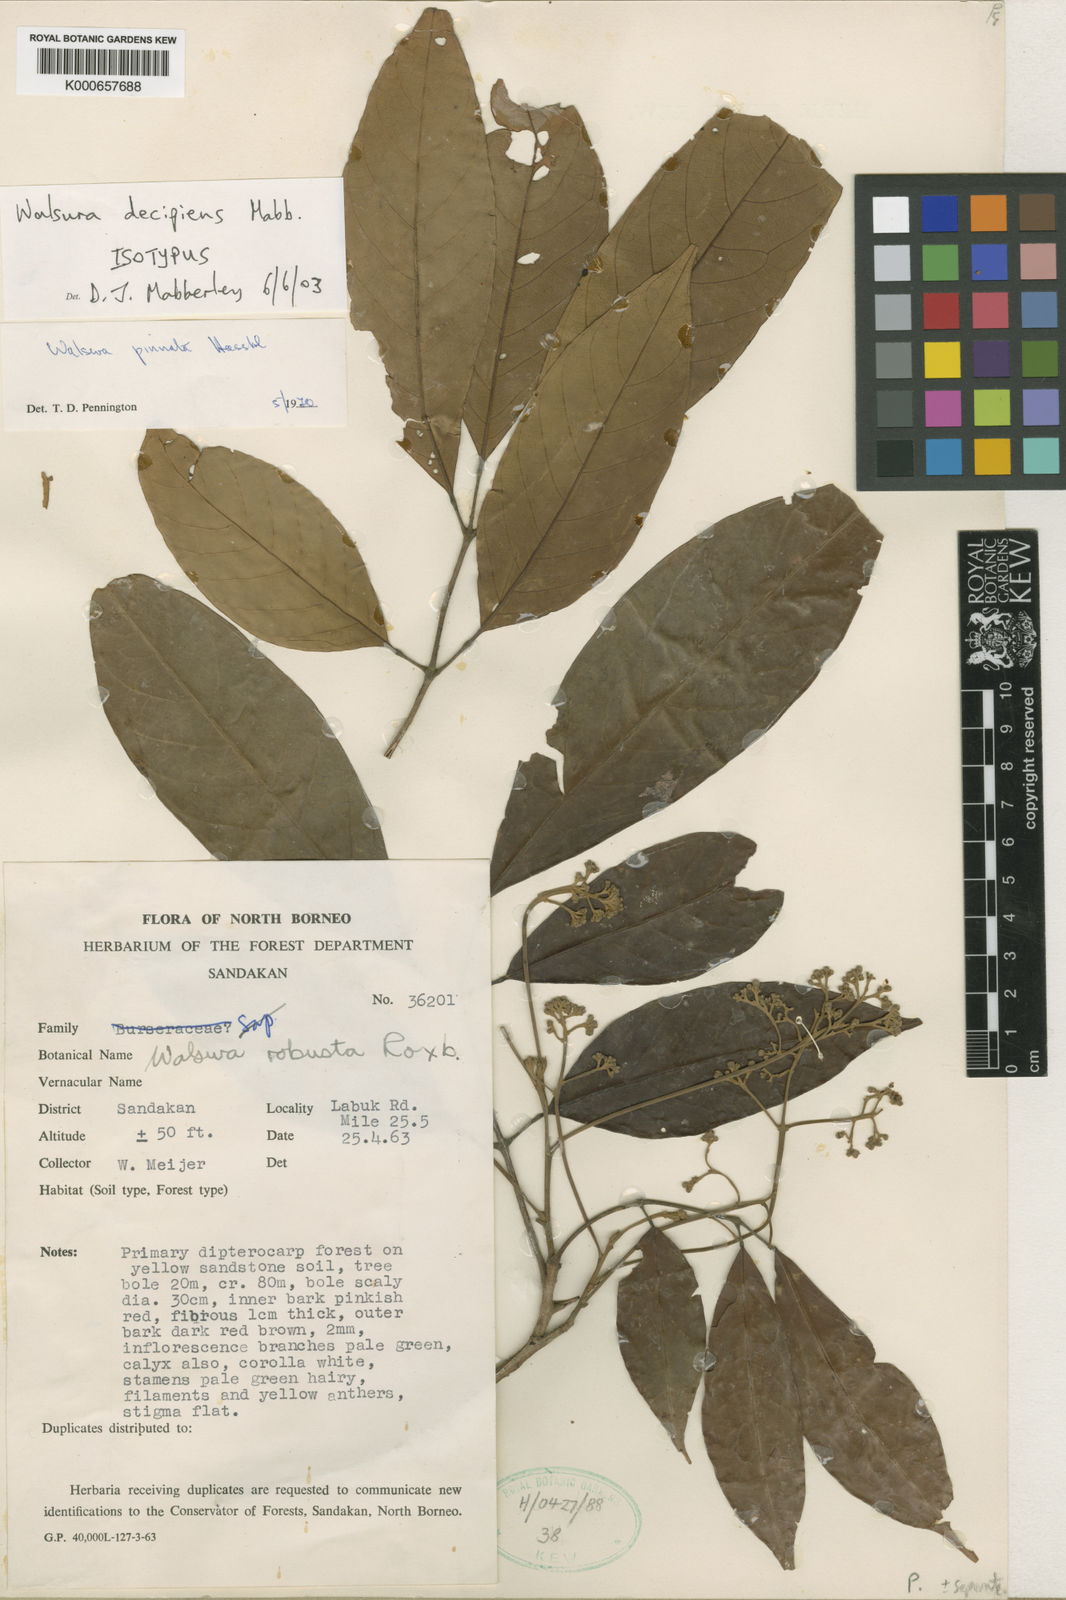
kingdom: Plantae
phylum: Tracheophyta
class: Magnoliopsida
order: Sapindales
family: Meliaceae
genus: Walsura
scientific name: Walsura decipiens
